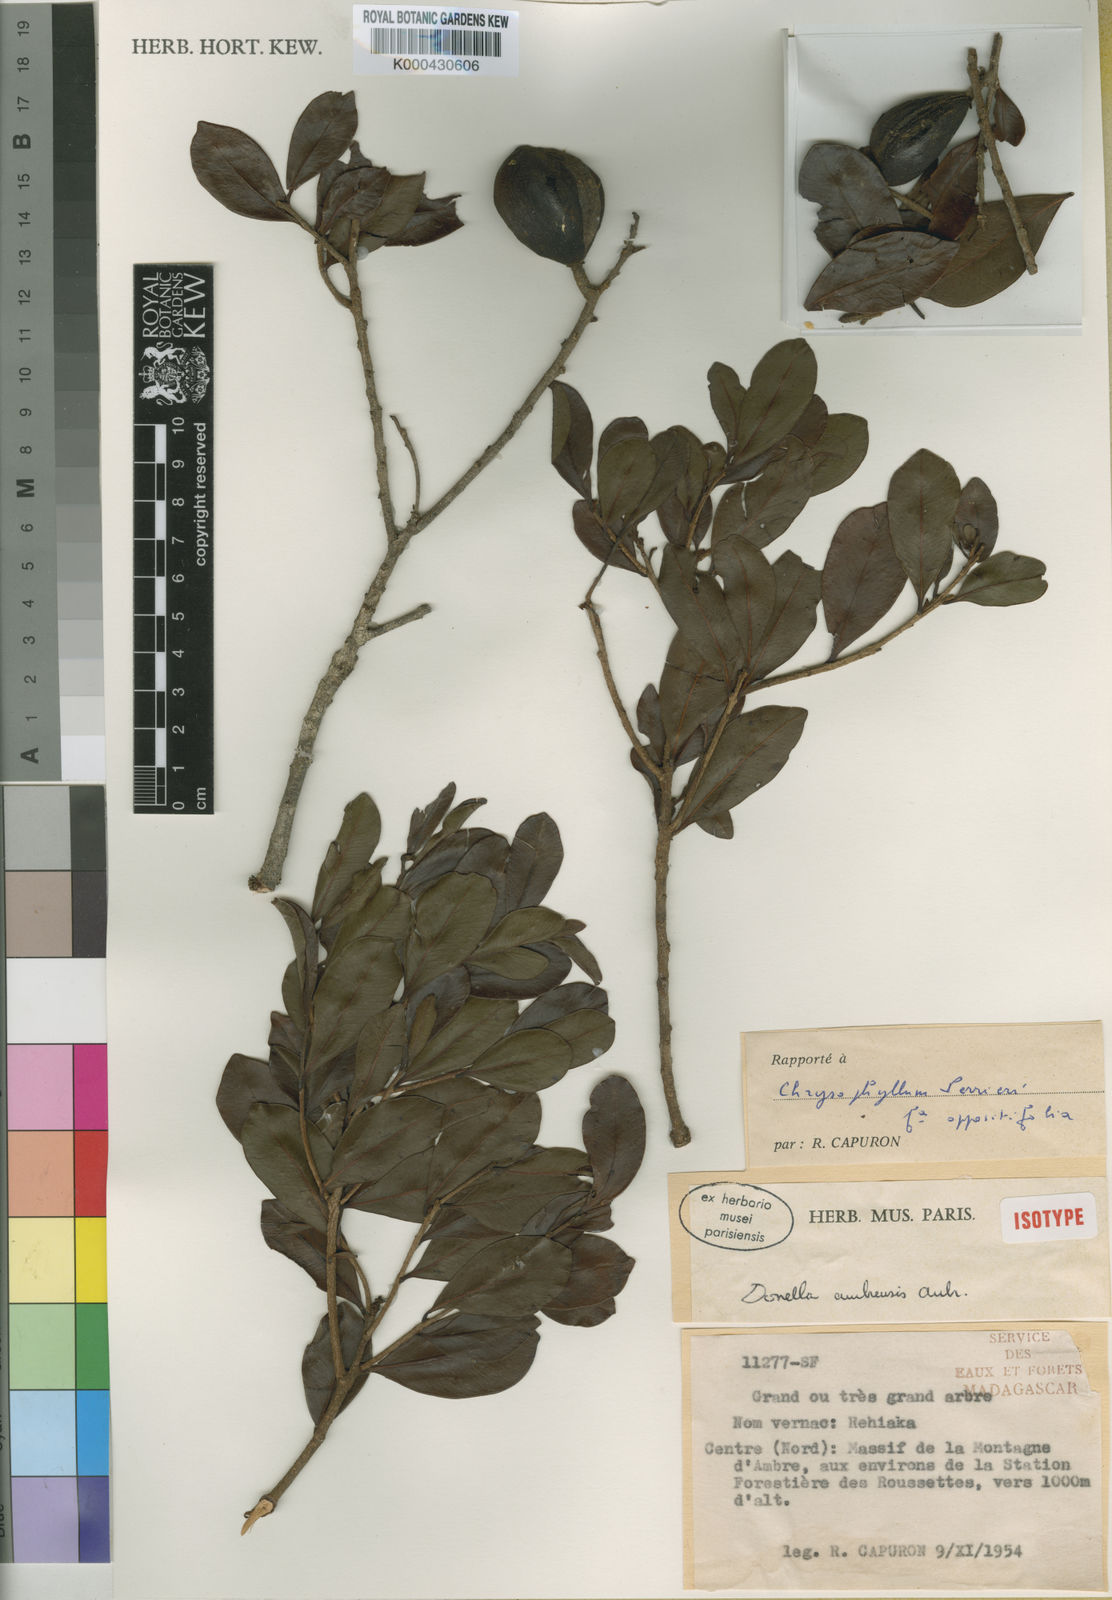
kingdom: Plantae
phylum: Tracheophyta
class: Magnoliopsida
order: Ericales
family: Sapotaceae
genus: Donella
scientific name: Donella perrieri
